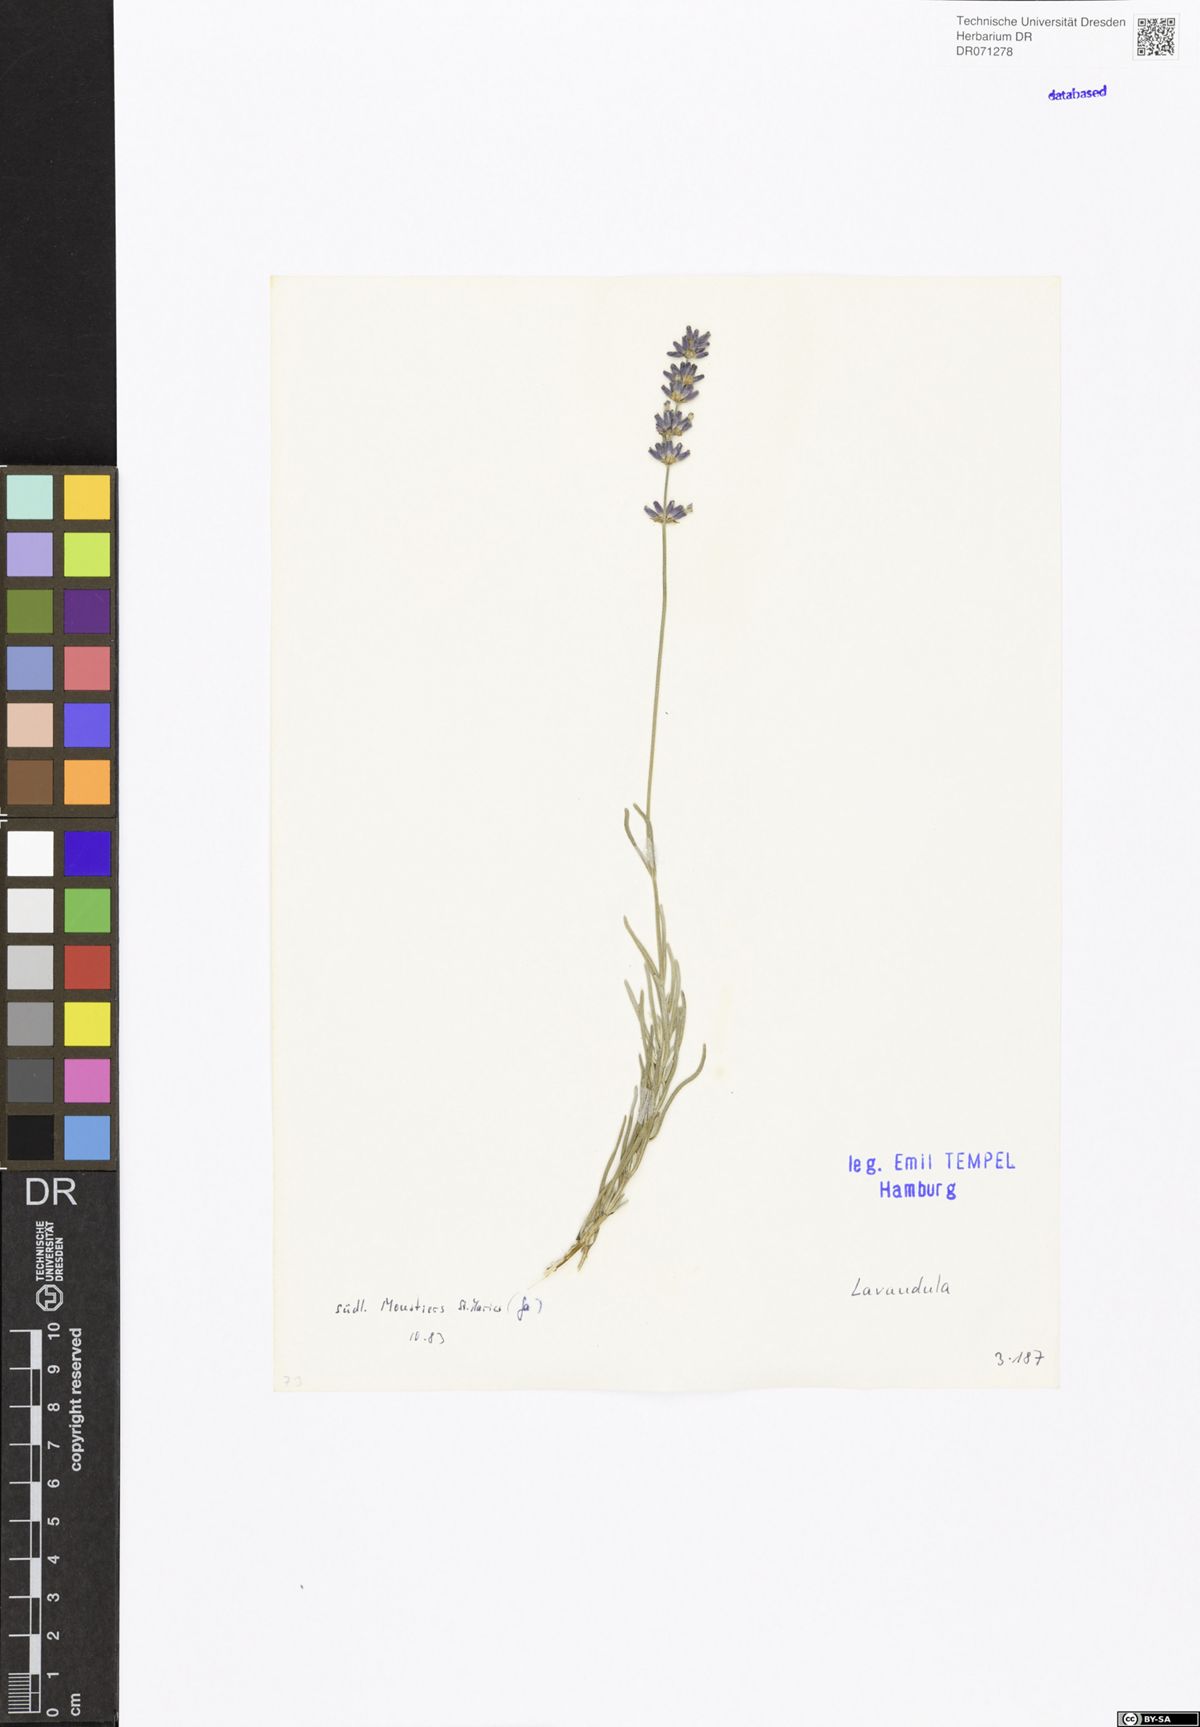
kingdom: Plantae
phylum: Tracheophyta
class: Magnoliopsida
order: Lamiales
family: Lamiaceae
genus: Lavandula
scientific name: Lavandula
